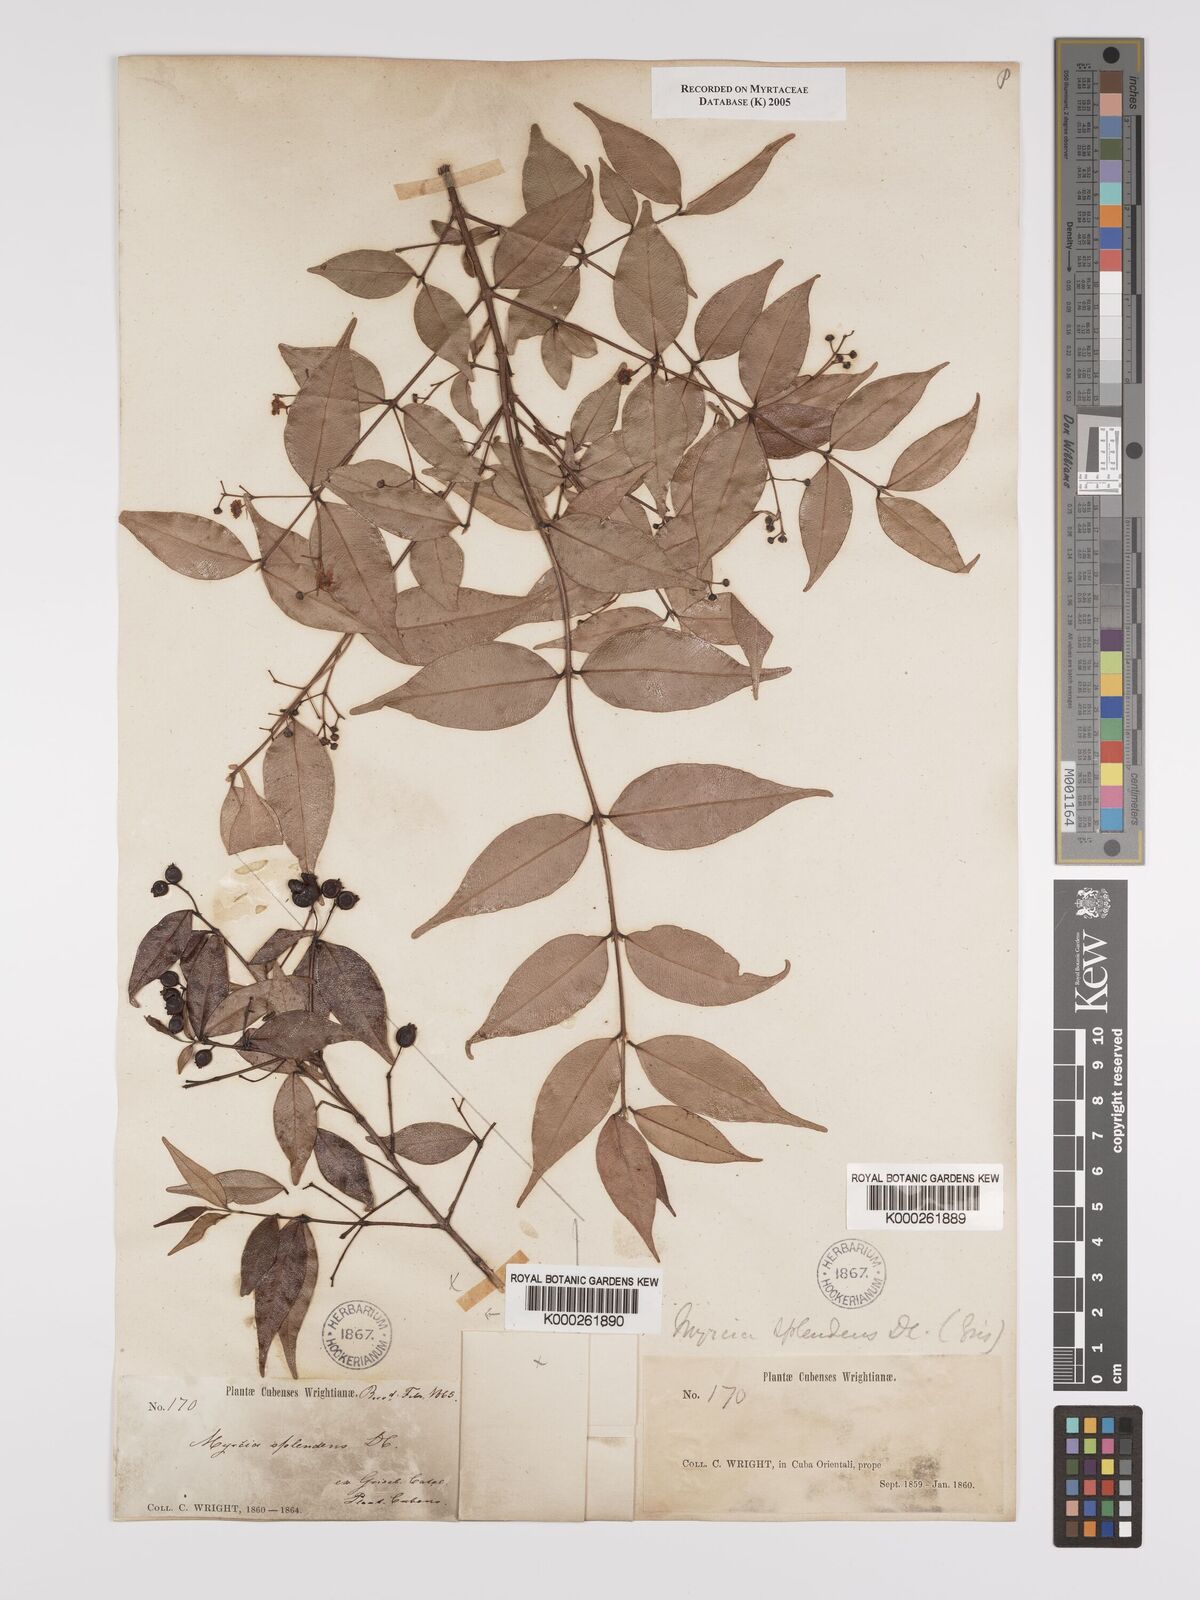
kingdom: Plantae
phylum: Tracheophyta
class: Magnoliopsida
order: Myrtales
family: Myrtaceae
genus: Myrcia
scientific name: Myrcia splendens
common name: Surinam cherry
